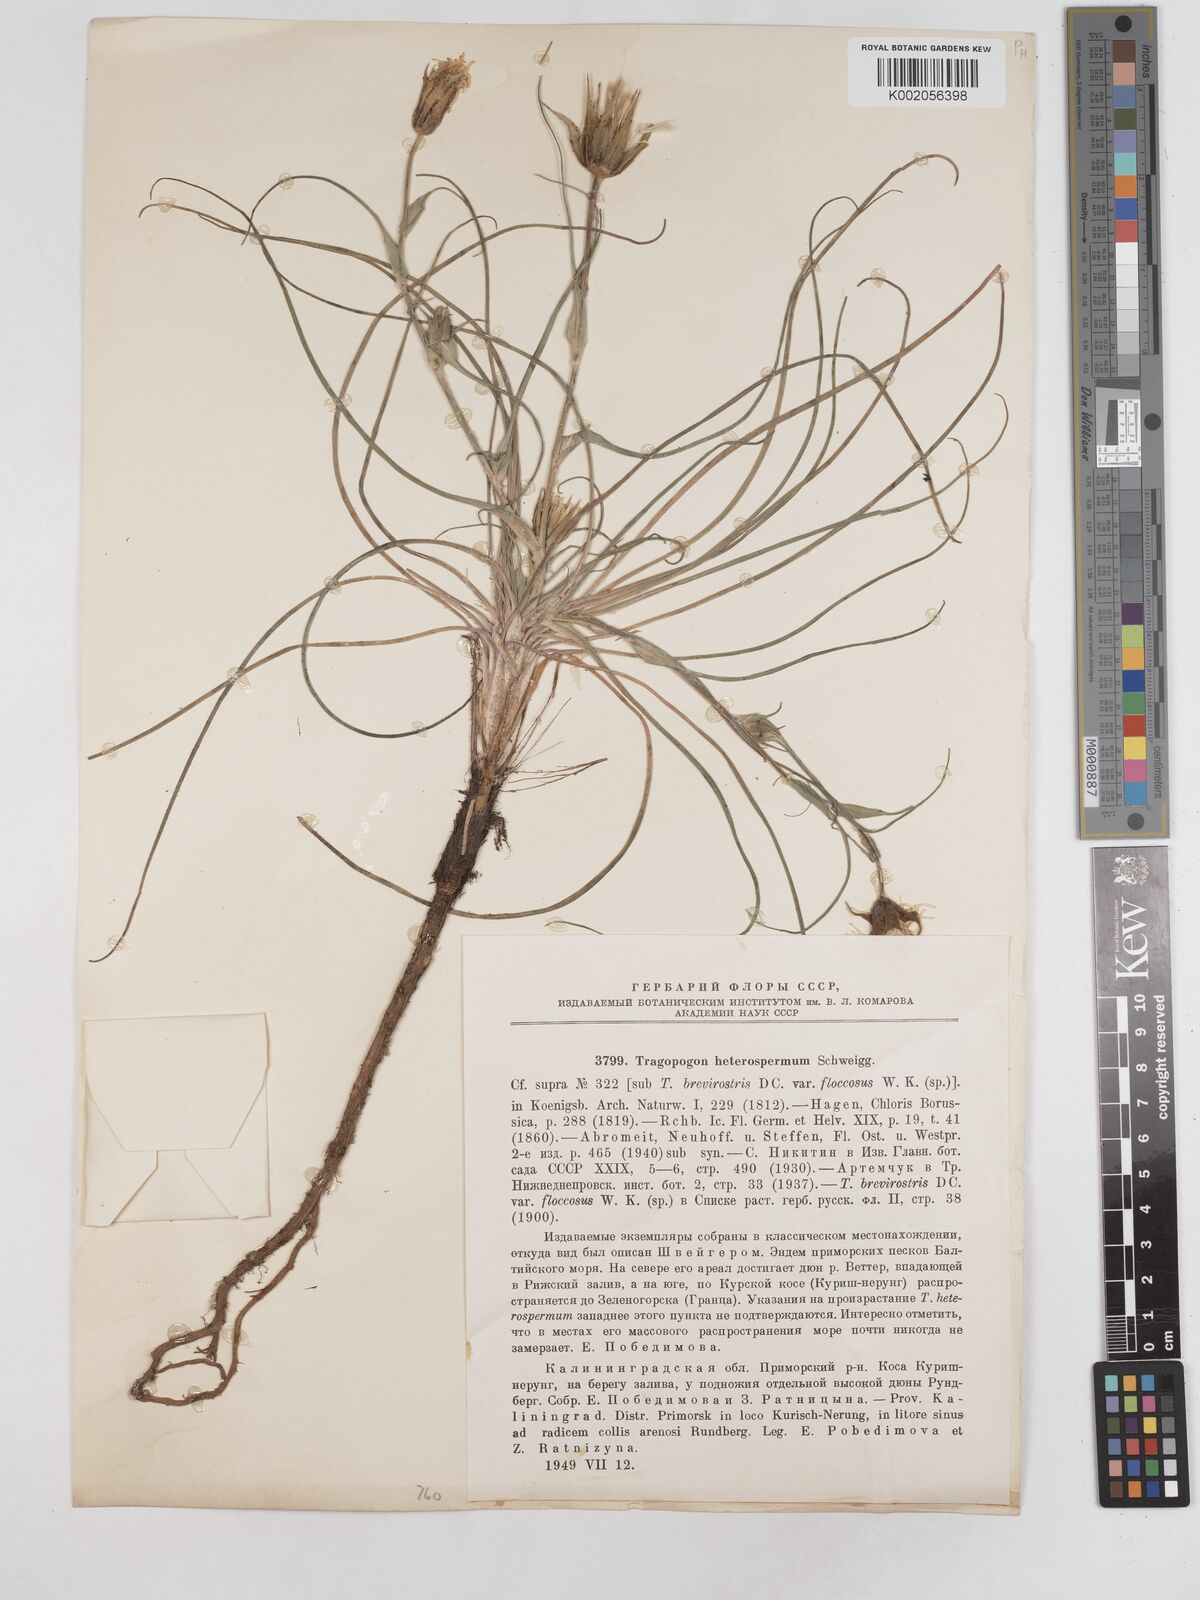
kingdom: Plantae
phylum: Tracheophyta
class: Magnoliopsida
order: Asterales
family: Asteraceae
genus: Tragopogon
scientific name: Tragopogon heterospermus
